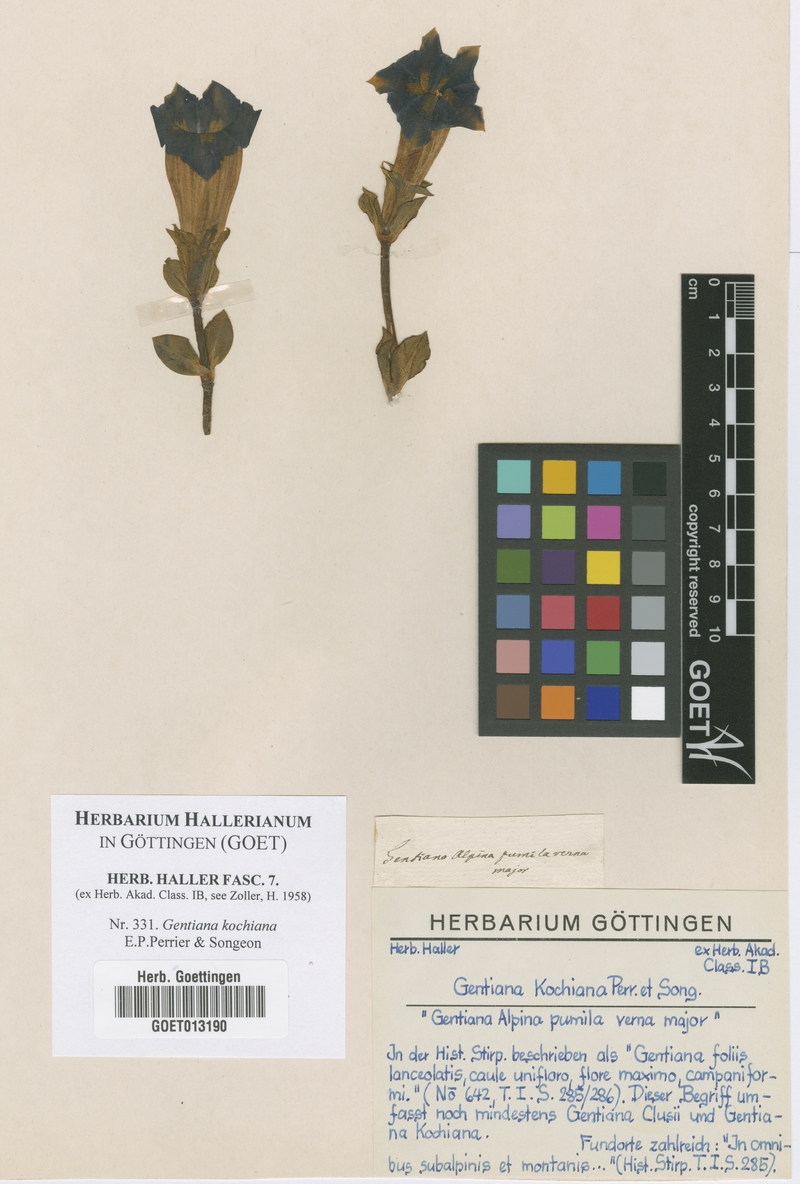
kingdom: Plantae
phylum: Tracheophyta
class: Magnoliopsida
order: Gentianales
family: Gentianaceae
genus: Gentiana
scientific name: Gentiana acaulis
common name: Trumpet gentian
